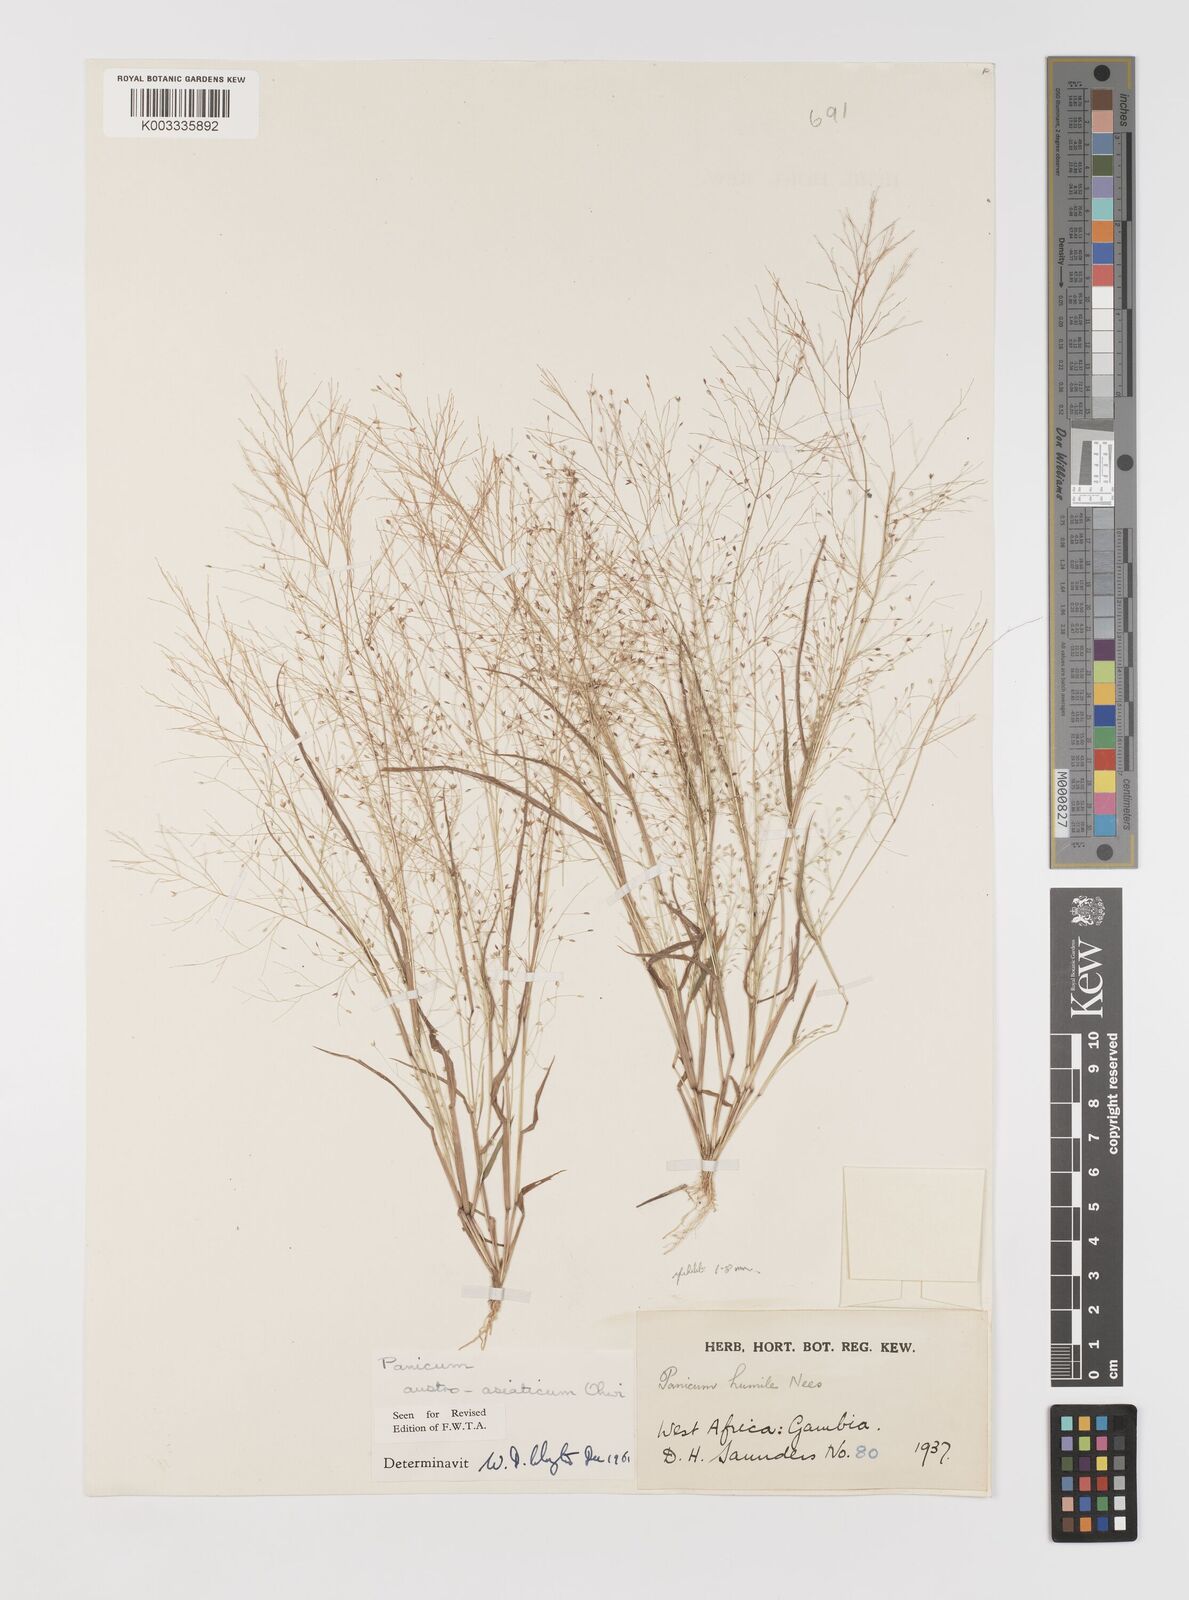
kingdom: Plantae
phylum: Tracheophyta
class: Liliopsida
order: Poales
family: Poaceae
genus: Panicum
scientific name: Panicum humile
